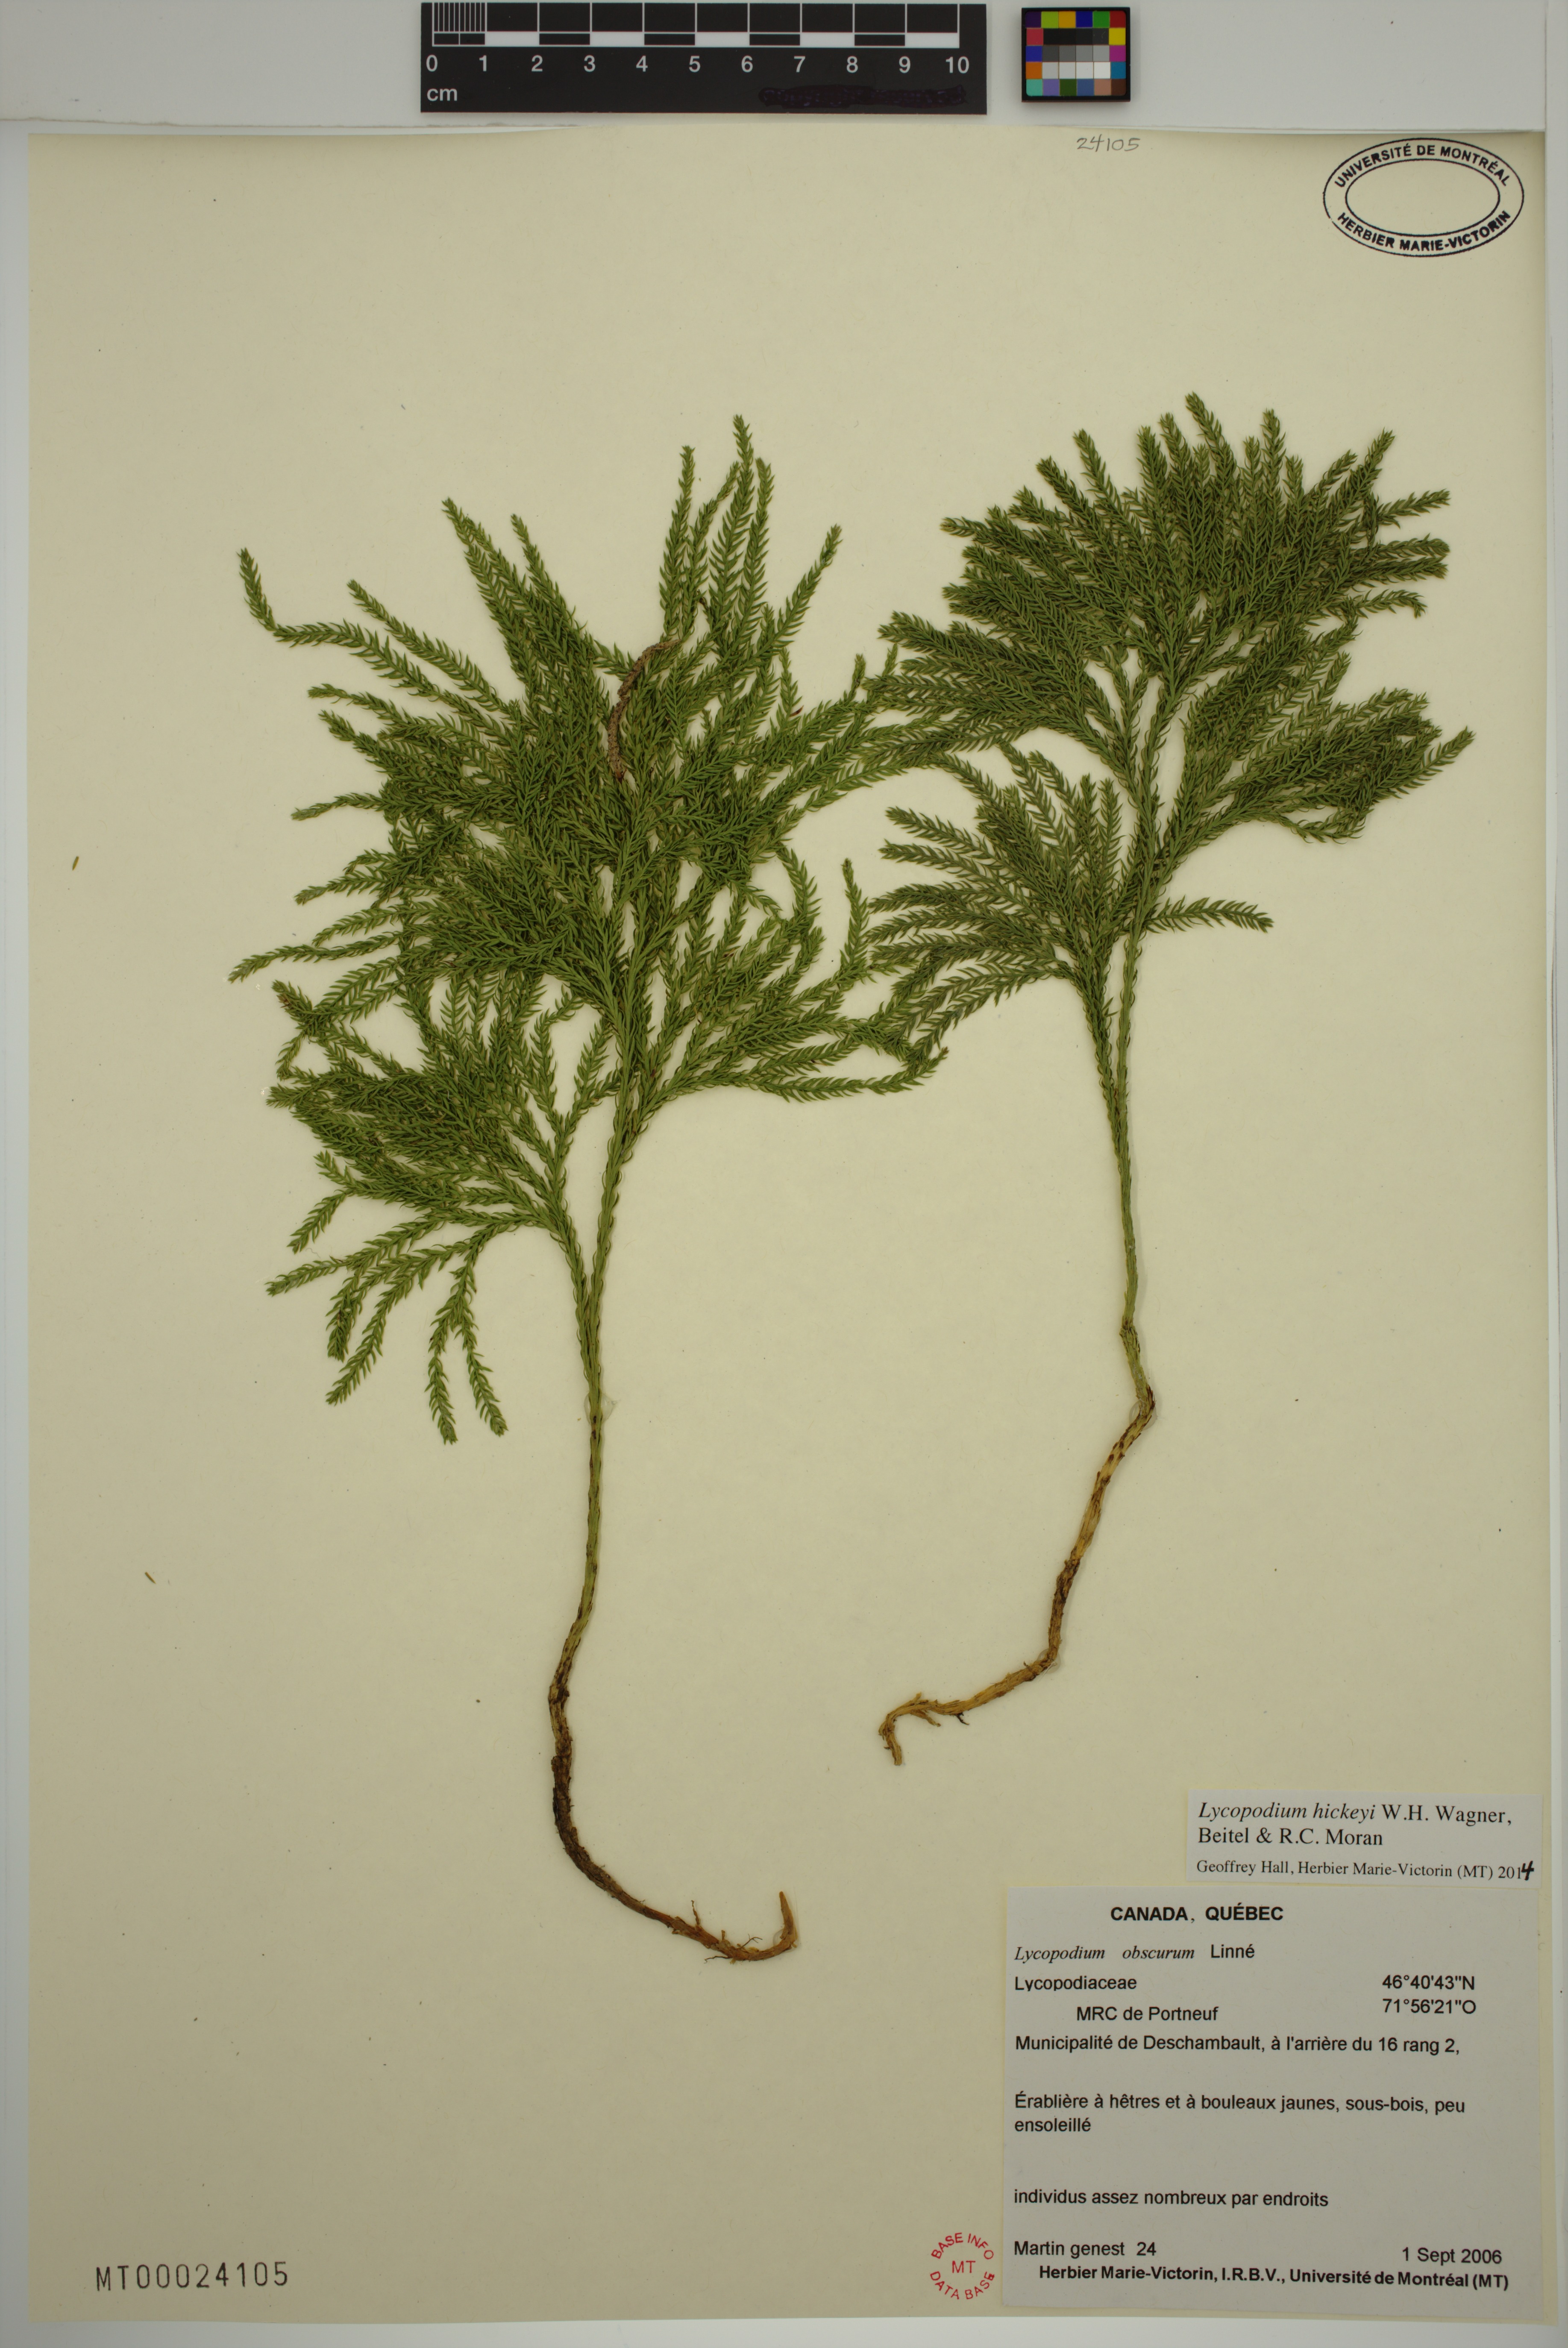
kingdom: Plantae
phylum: Tracheophyta
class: Lycopodiopsida
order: Lycopodiales
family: Lycopodiaceae
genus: Dendrolycopodium
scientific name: Dendrolycopodium hickeyi
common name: Hickey's clubmoss
